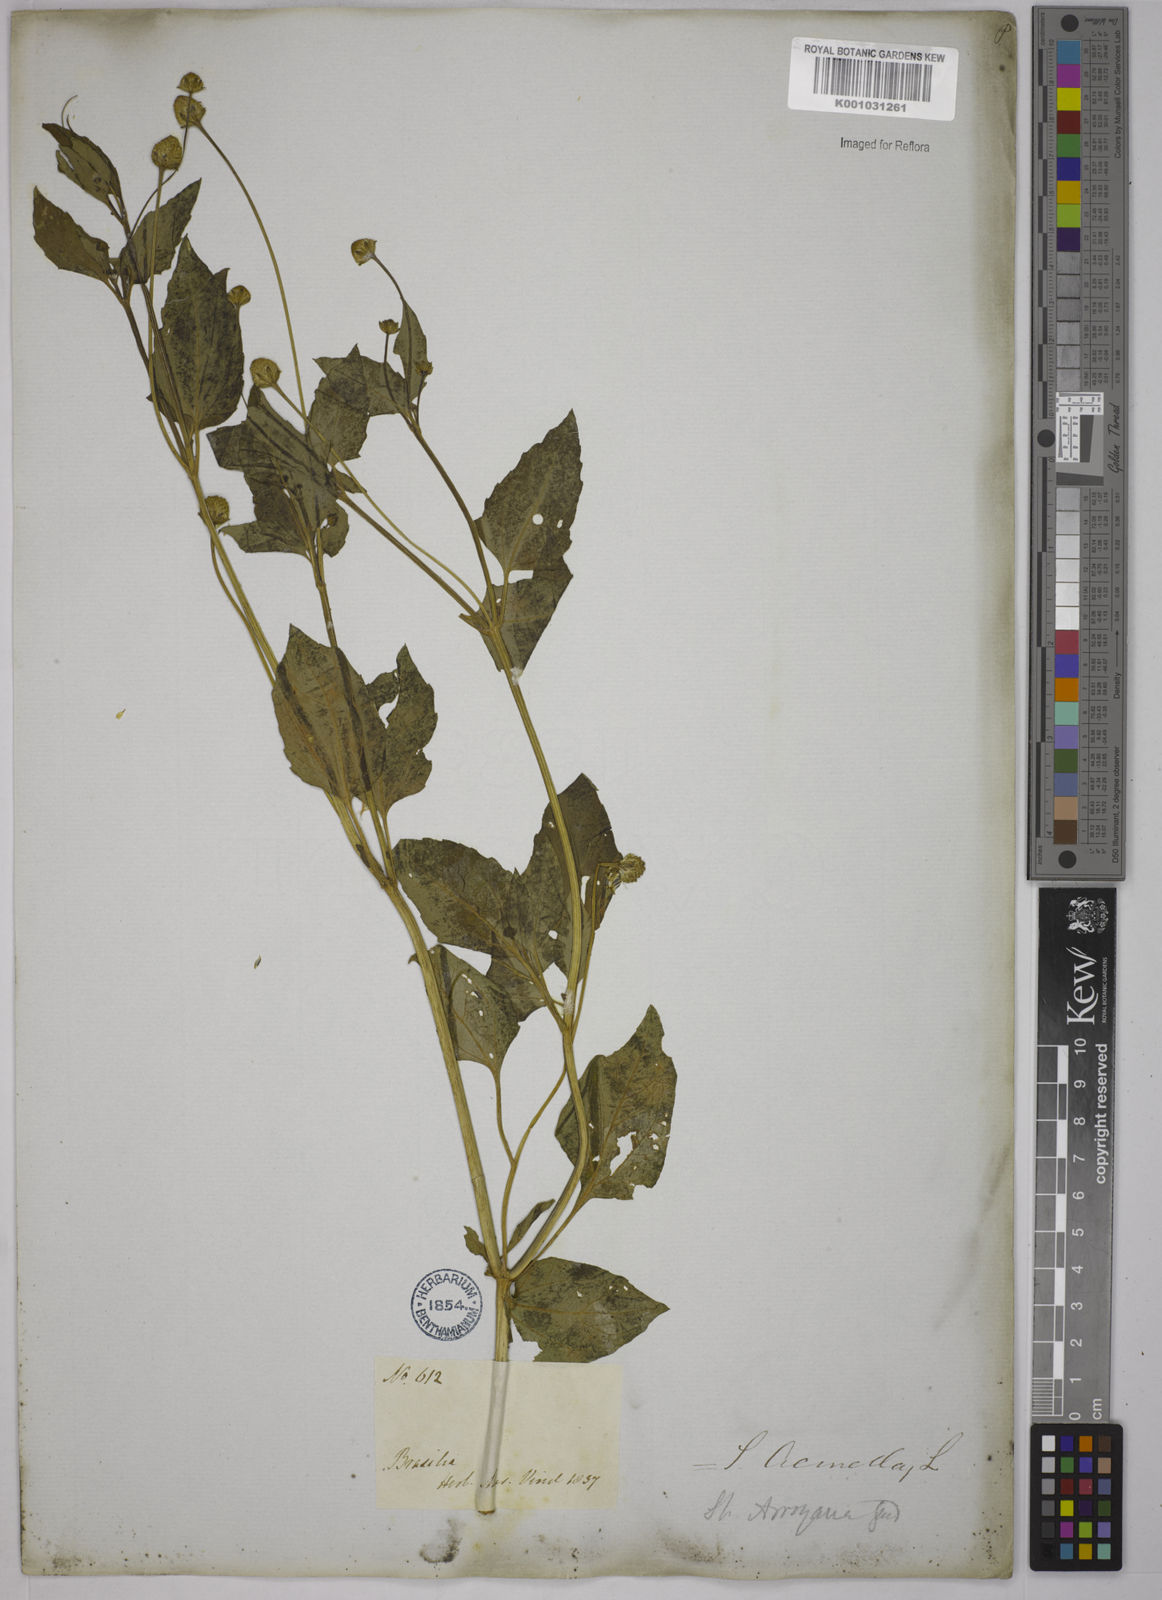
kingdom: Plantae
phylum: Tracheophyta
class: Magnoliopsida
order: Asterales
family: Asteraceae
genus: Acmella
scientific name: Acmella ciliata
